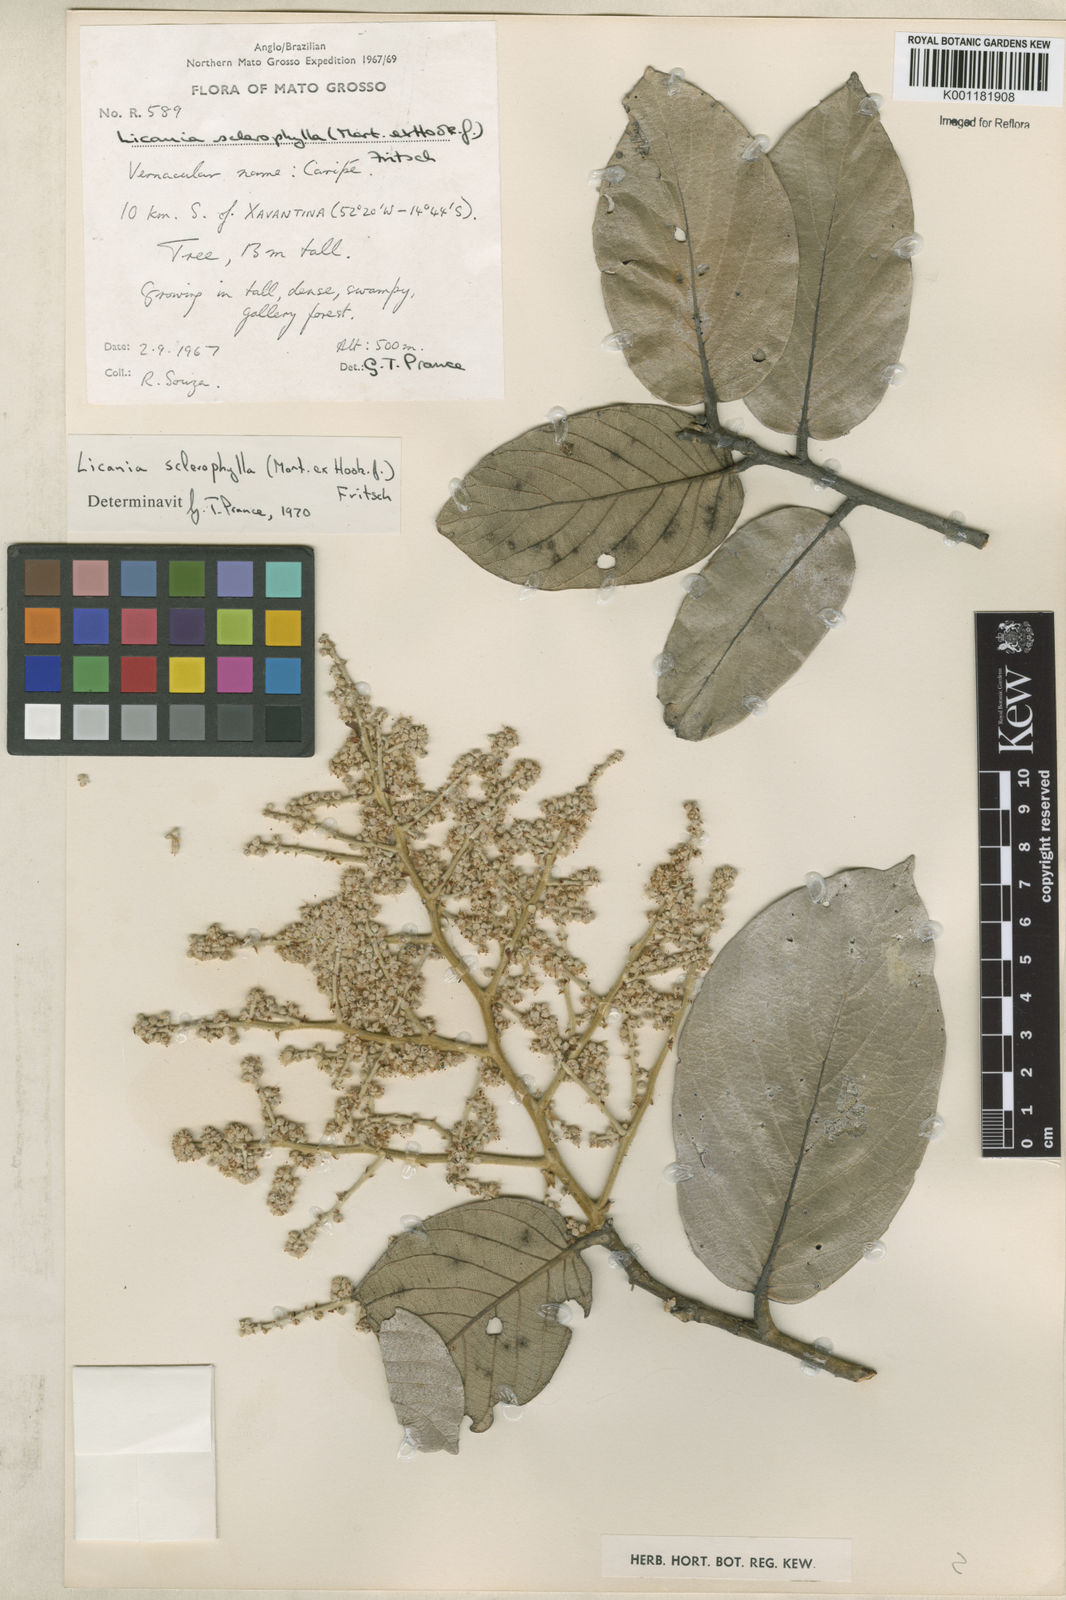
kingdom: Plantae
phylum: Tracheophyta
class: Magnoliopsida
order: Malpighiales
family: Chrysobalanaceae
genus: Leptobalanus
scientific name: Leptobalanus sclerophyllus
